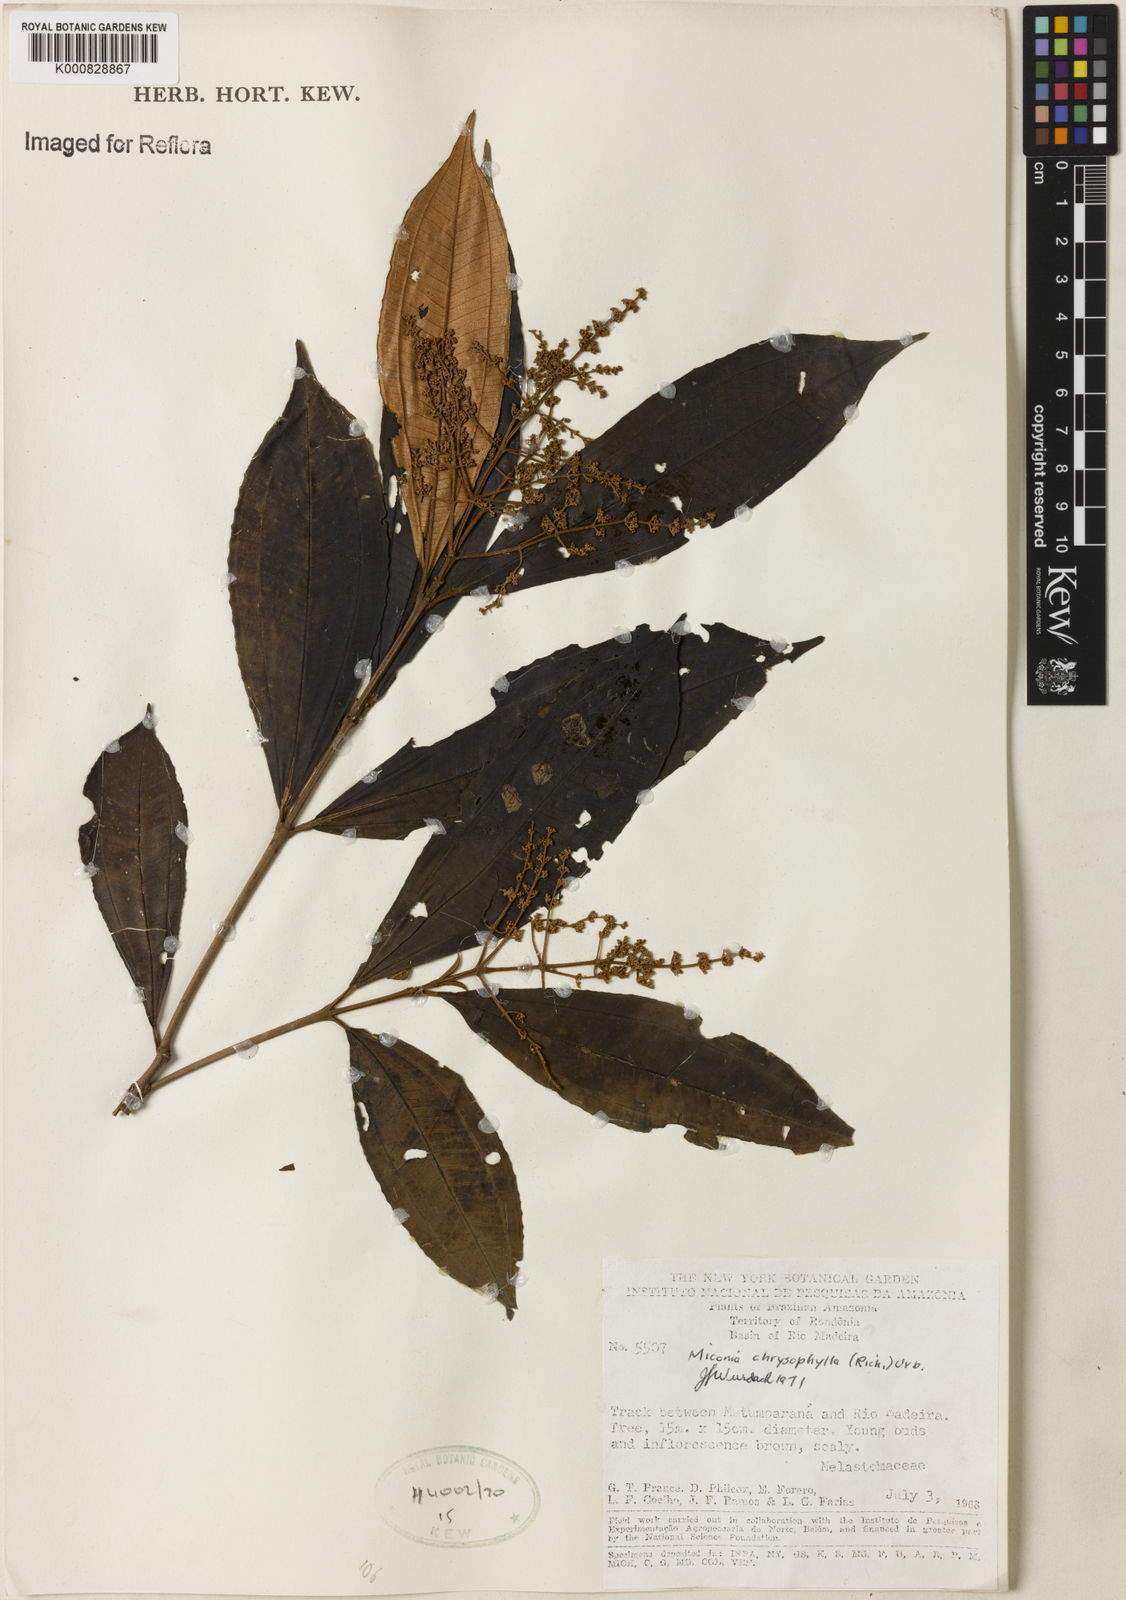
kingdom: Plantae
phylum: Tracheophyta
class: Magnoliopsida
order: Myrtales
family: Melastomataceae
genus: Miconia
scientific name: Miconia chrysophylla
